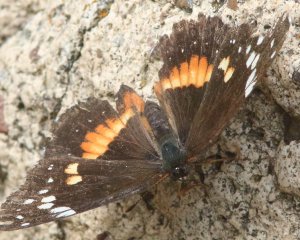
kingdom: Animalia
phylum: Arthropoda
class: Insecta
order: Lepidoptera
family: Nymphalidae
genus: Chlosyne
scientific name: Chlosyne lacinia
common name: Bordered Patch
